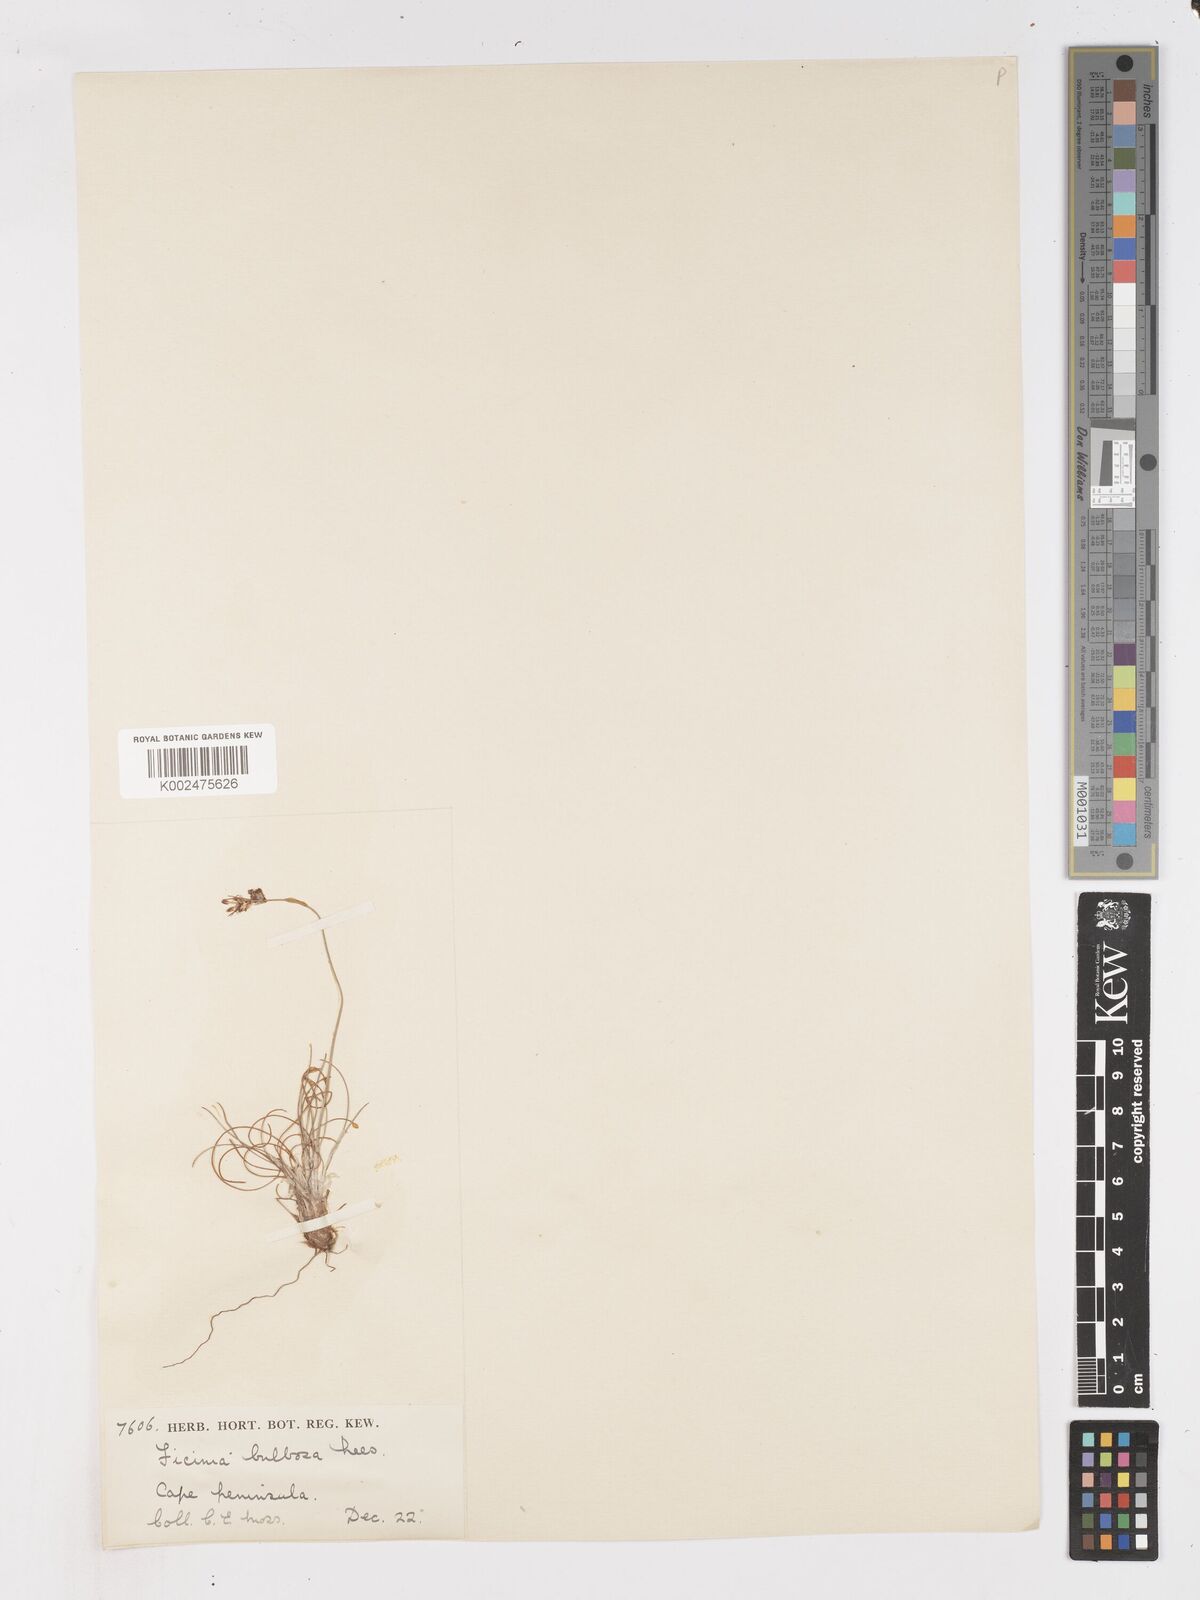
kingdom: Plantae
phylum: Tracheophyta
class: Liliopsida
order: Poales
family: Cyperaceae
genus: Ficinia
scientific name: Ficinia bulbosa
